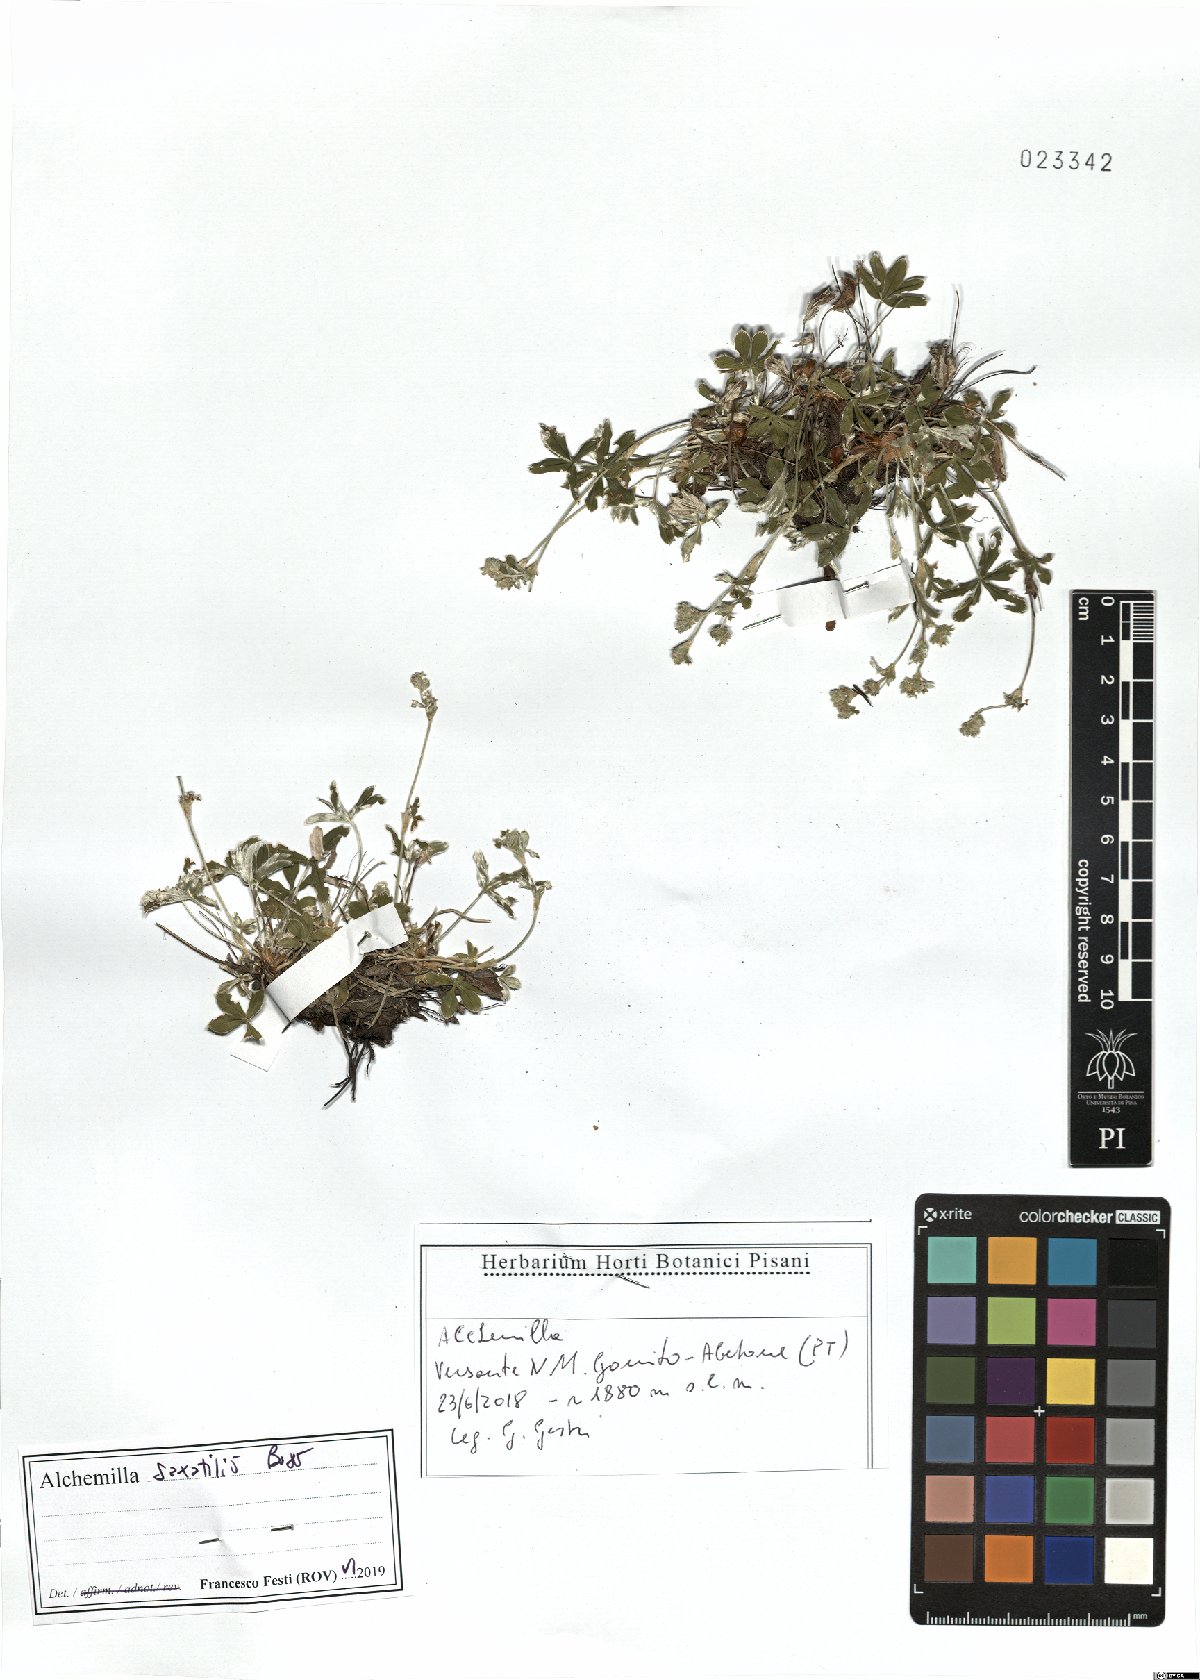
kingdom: Plantae
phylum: Tracheophyta
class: Magnoliopsida
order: Rosales
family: Rosaceae
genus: Alchemilla
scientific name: Alchemilla saxatilis
